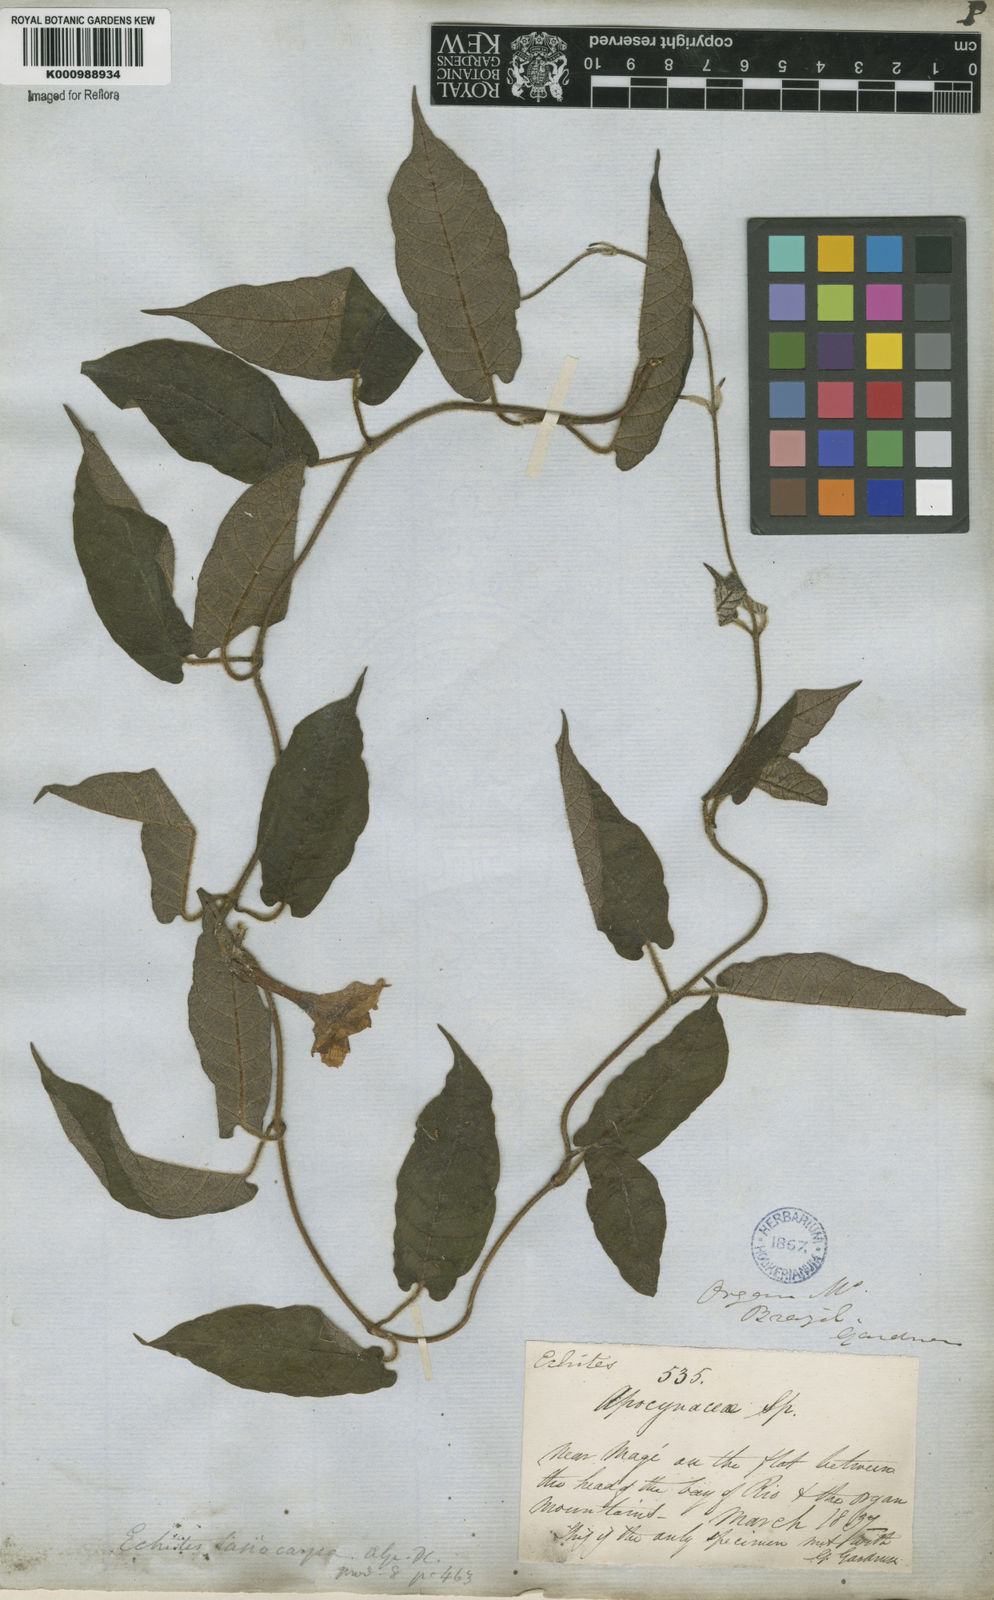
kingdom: Plantae
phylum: Tracheophyta
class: Magnoliopsida
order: Gentianales
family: Apocynaceae
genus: Mandevilla
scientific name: Mandevilla hirsuta
